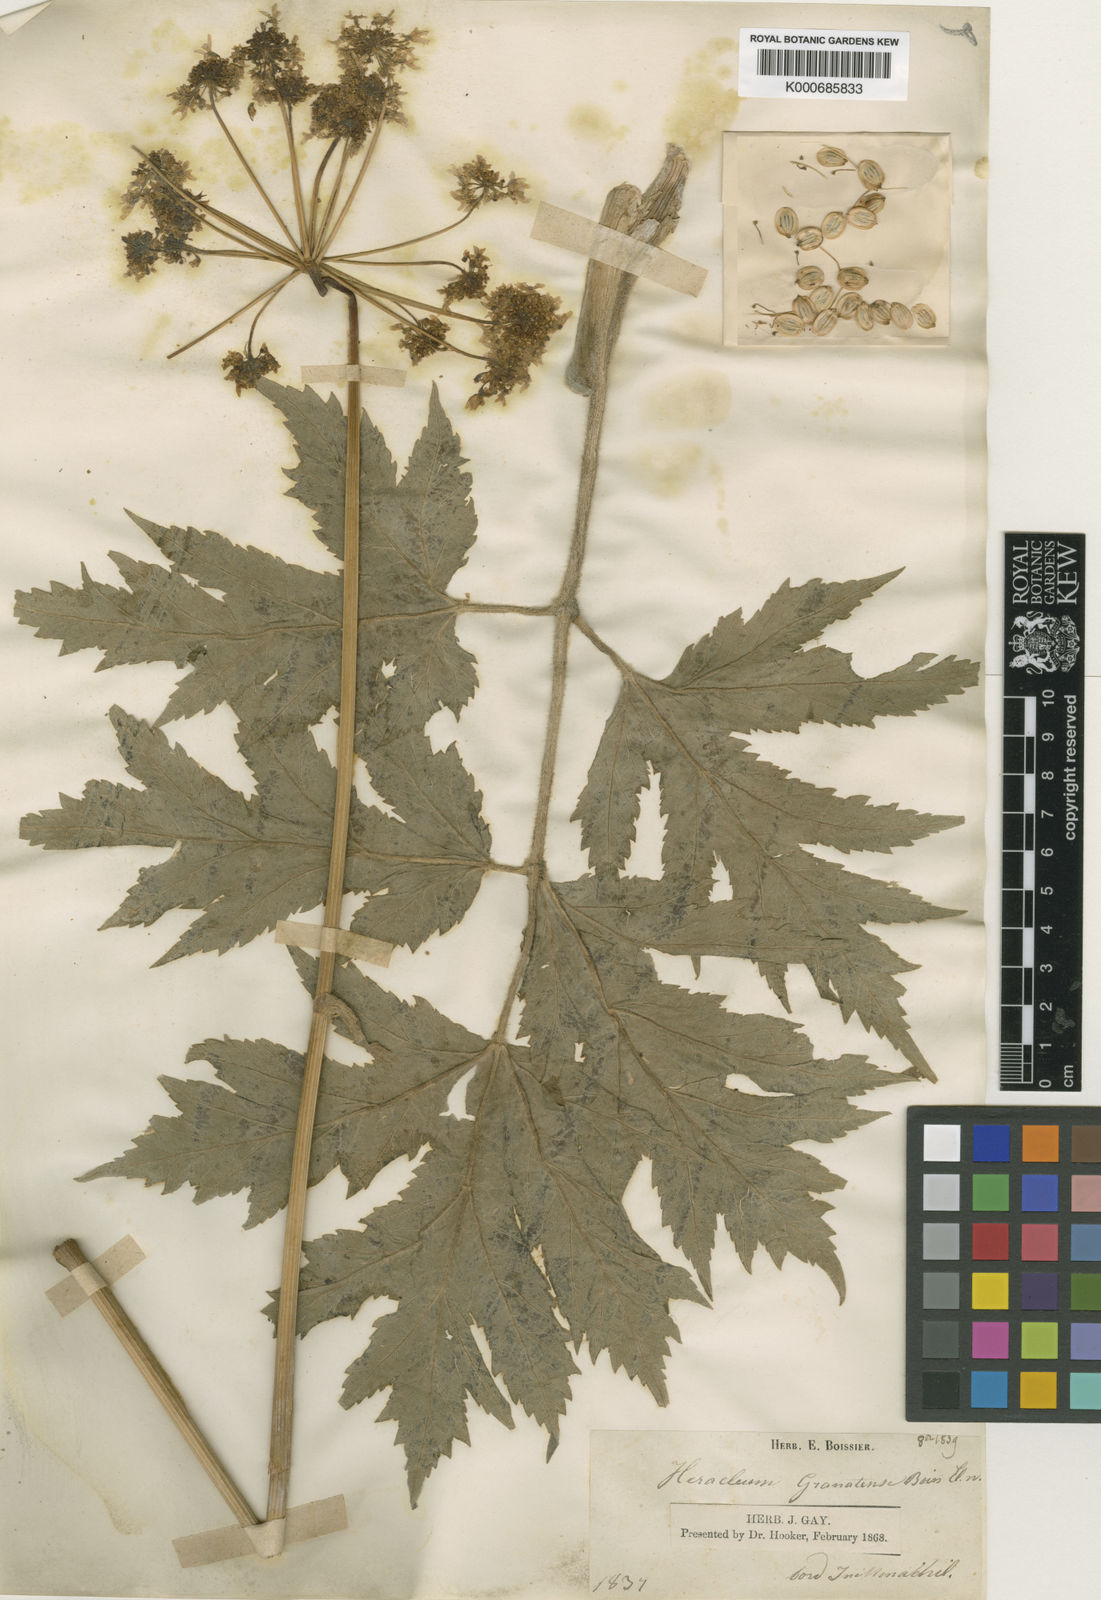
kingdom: Plantae
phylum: Tracheophyta
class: Magnoliopsida
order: Apiales
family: Apiaceae
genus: Heracleum
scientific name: Heracleum sphondylium
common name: Hogweed
